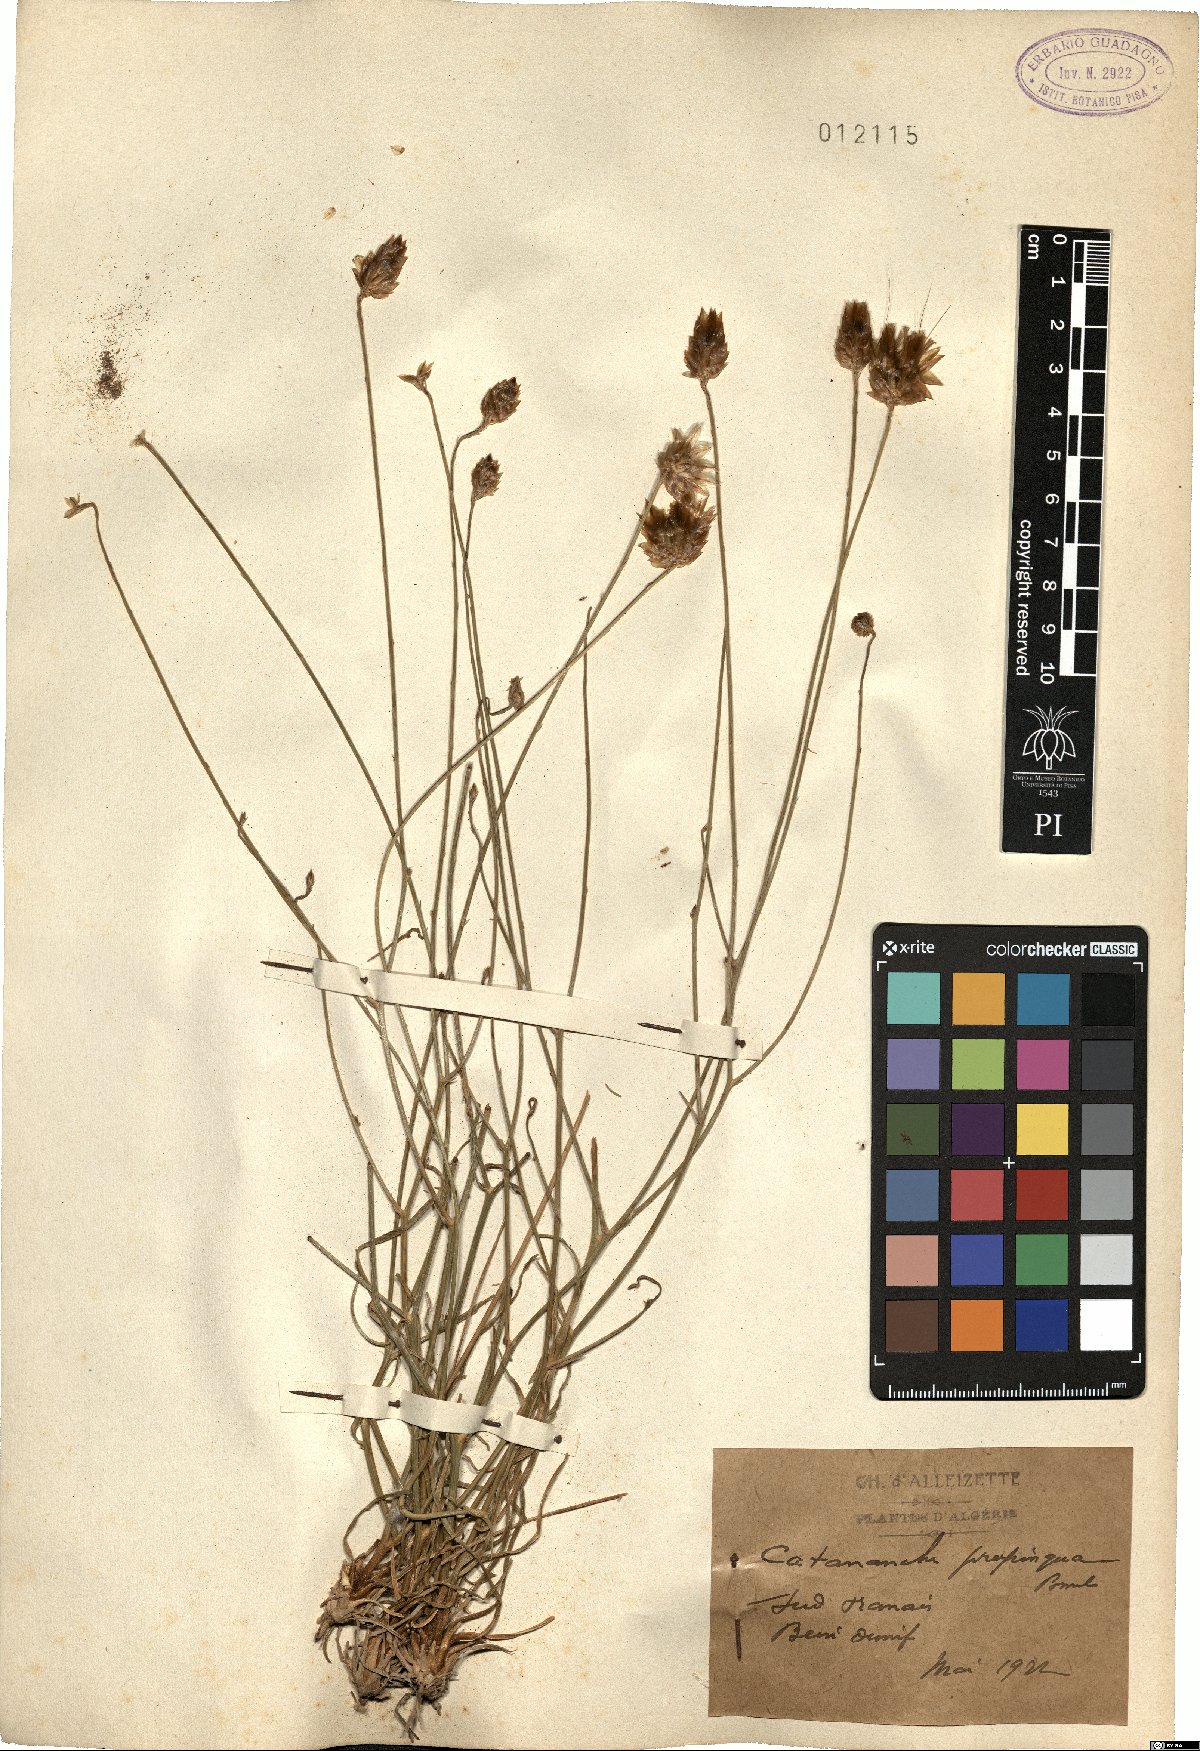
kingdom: Plantae
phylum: Tracheophyta
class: Magnoliopsida
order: Asterales
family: Asteraceae
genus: Catananche
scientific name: Catananche caerulea
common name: Blue cupidone
